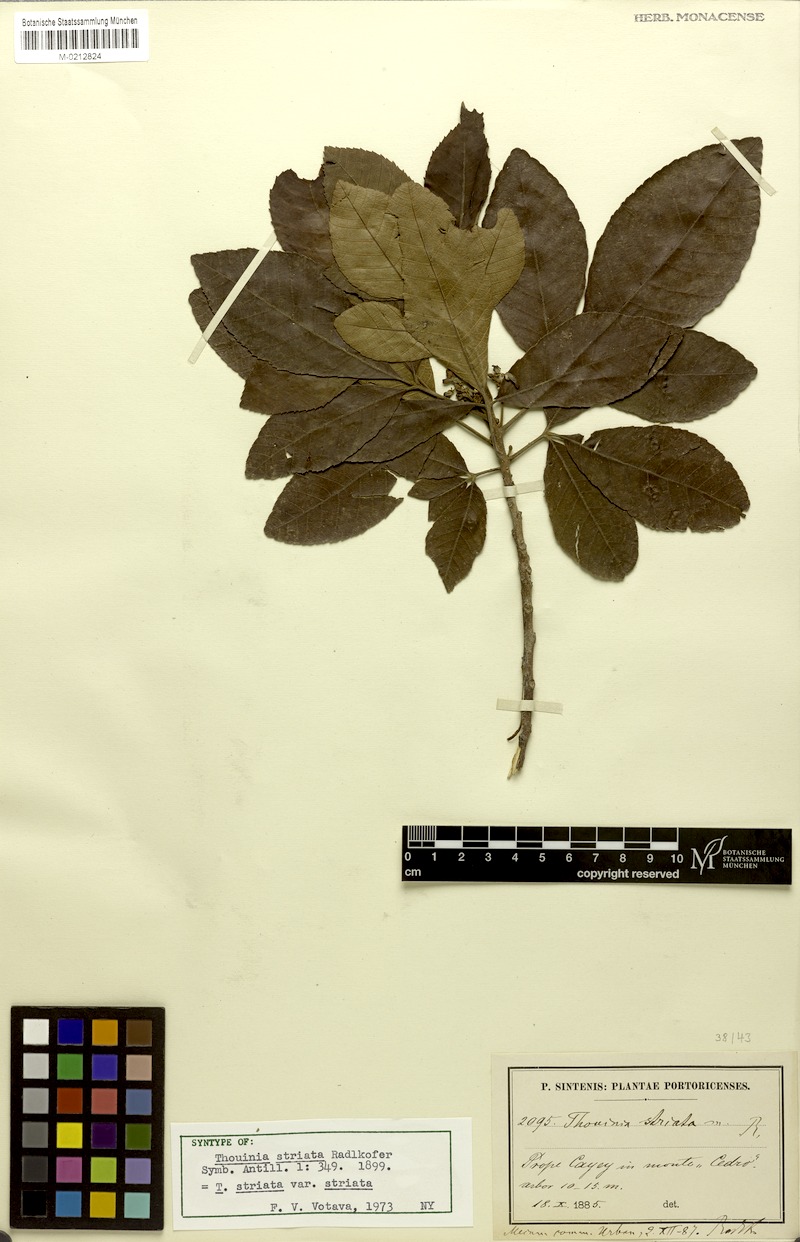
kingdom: Plantae
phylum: Tracheophyta
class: Magnoliopsida
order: Sapindales
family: Sapindaceae
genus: Thouinia
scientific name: Thouinia striata
